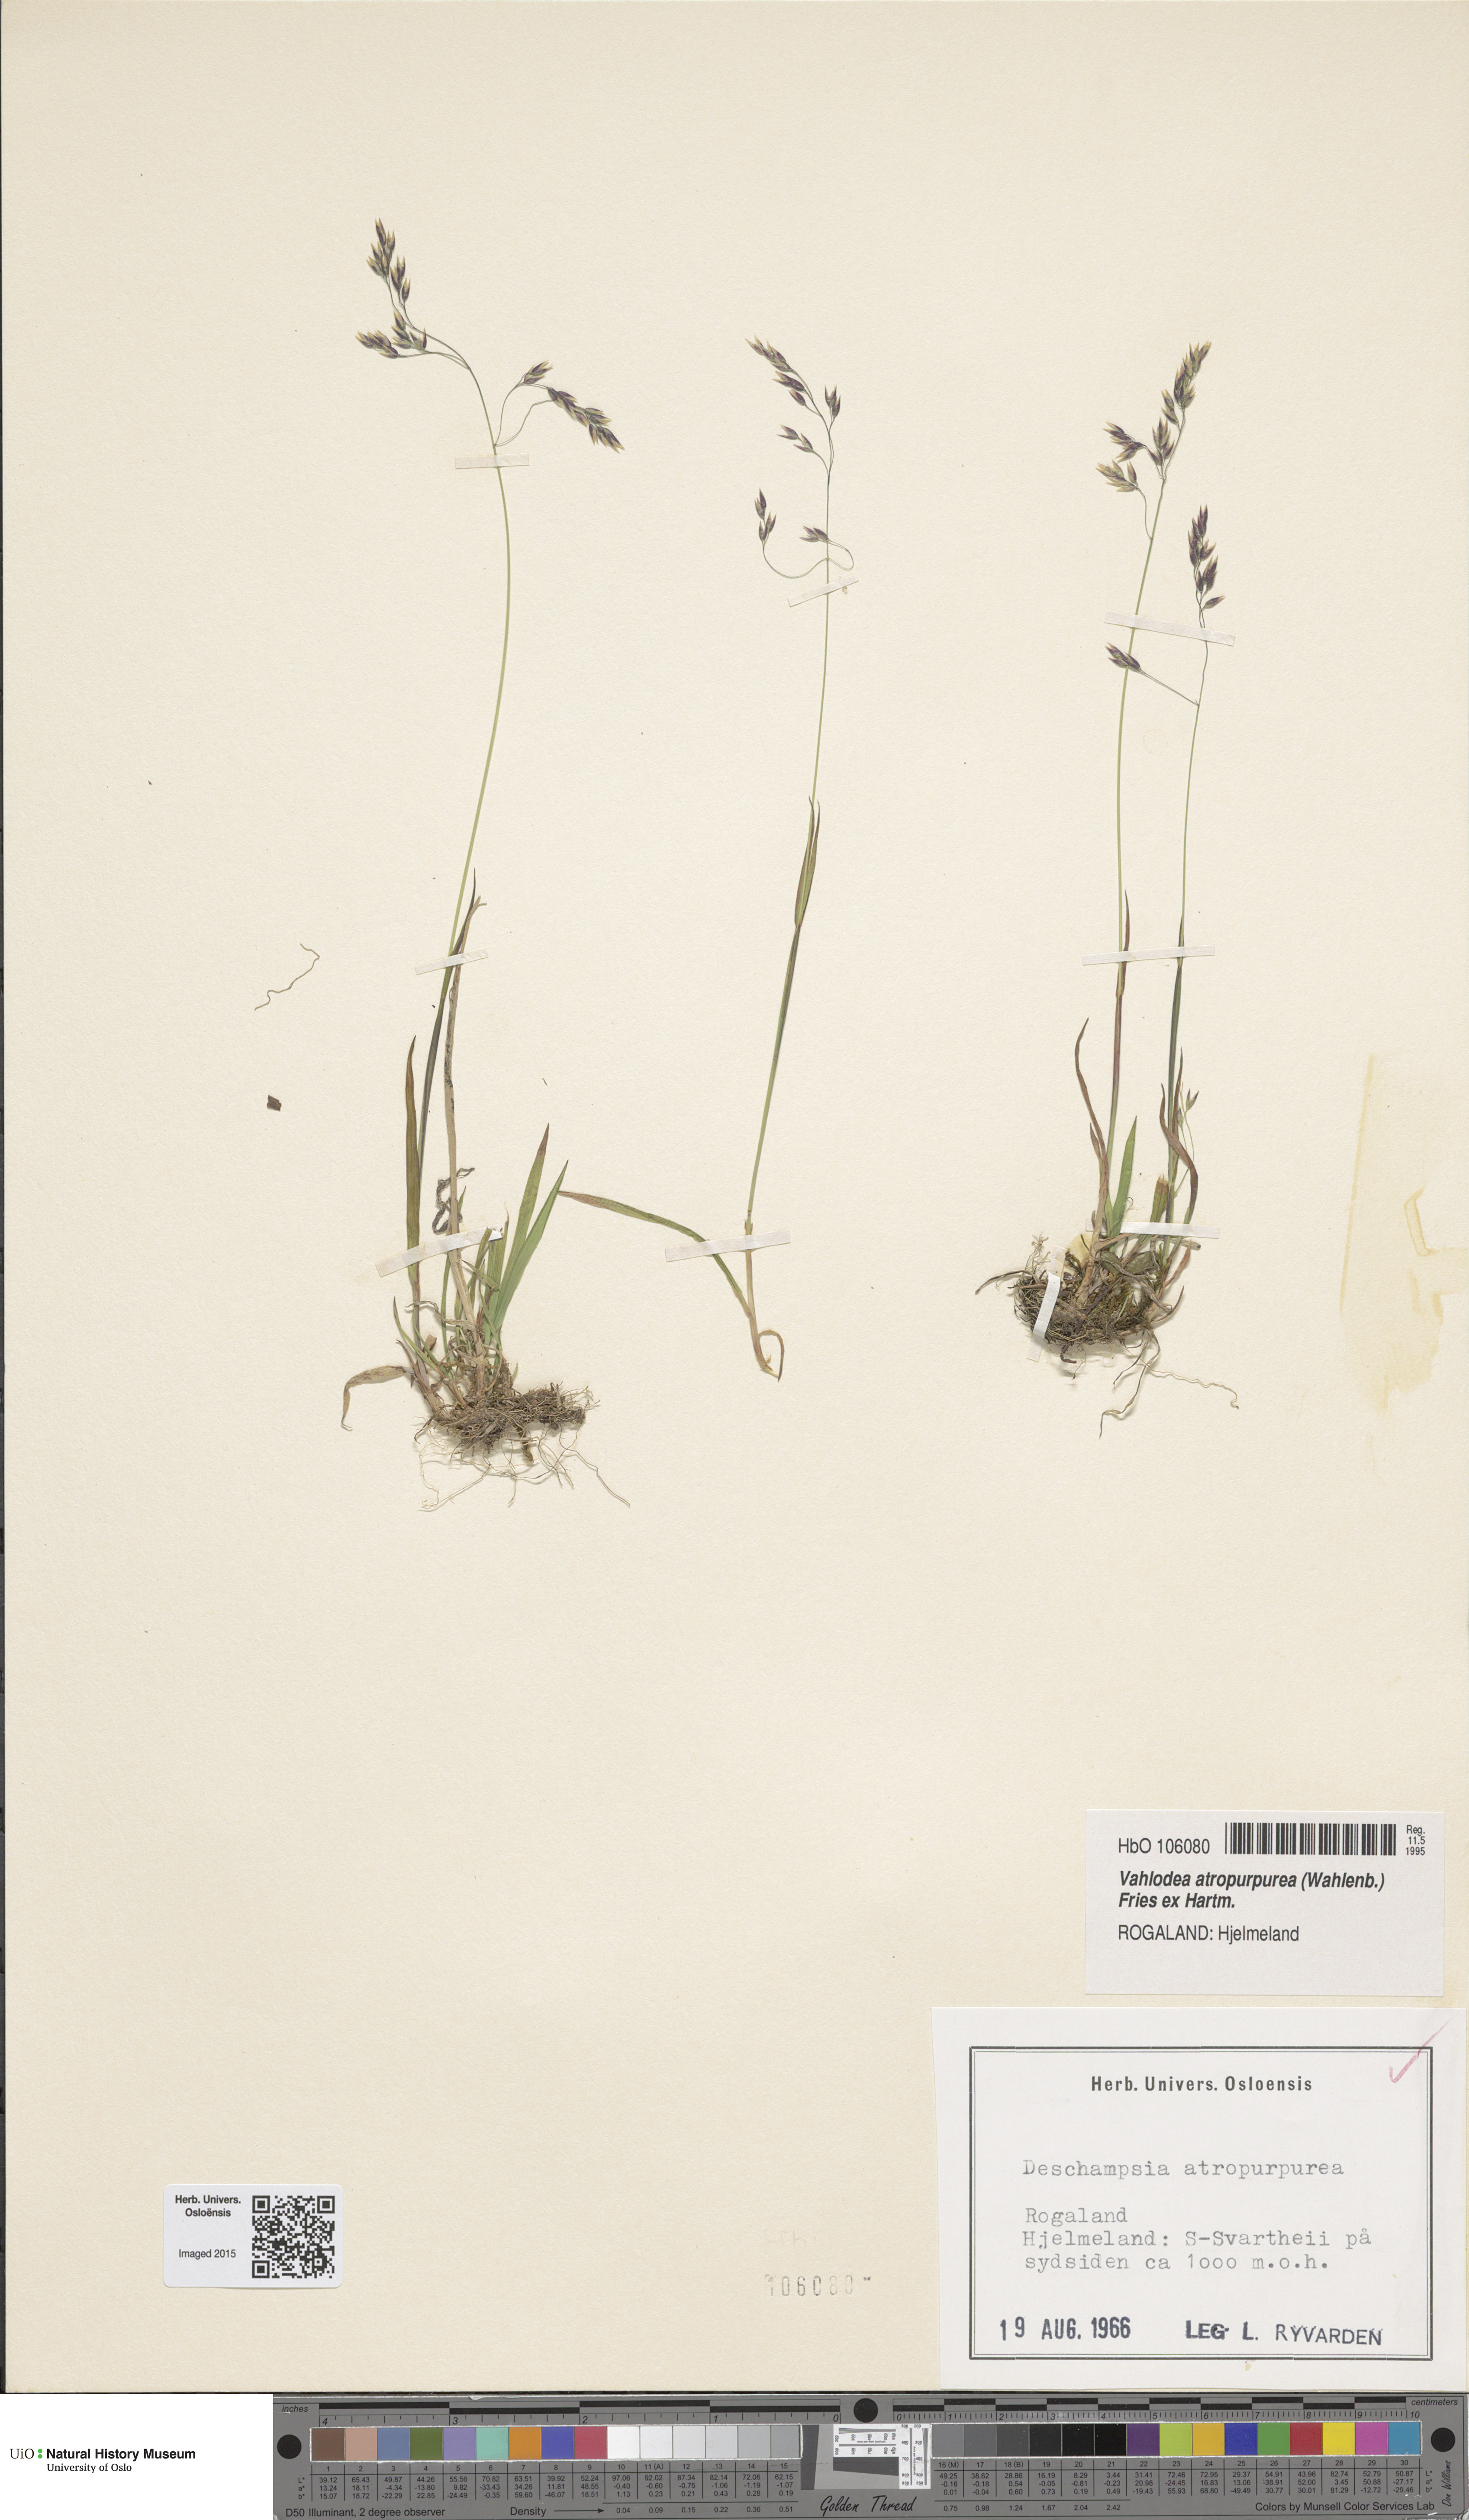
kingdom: Plantae
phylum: Tracheophyta
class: Liliopsida
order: Poales
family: Poaceae
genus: Vahlodea
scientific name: Vahlodea atropurpurea
